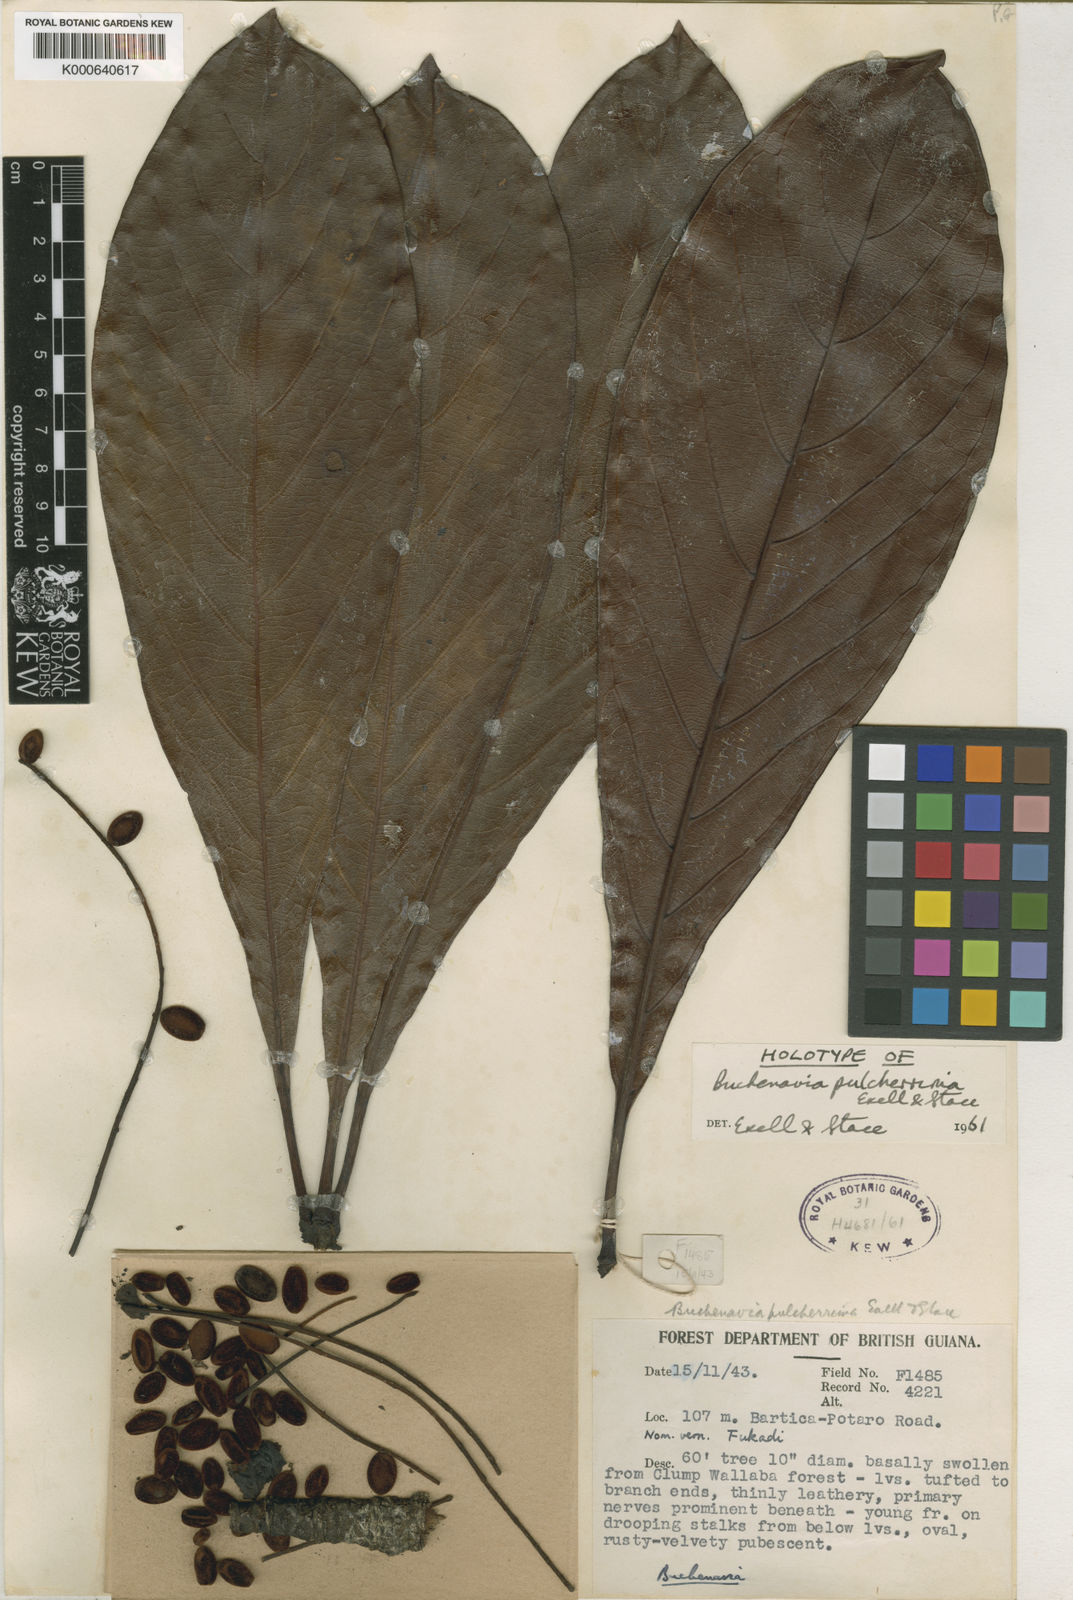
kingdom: Plantae
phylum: Tracheophyta
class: Magnoliopsida
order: Myrtales
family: Combretaceae
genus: Terminalia
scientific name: Terminalia pulcherrima
